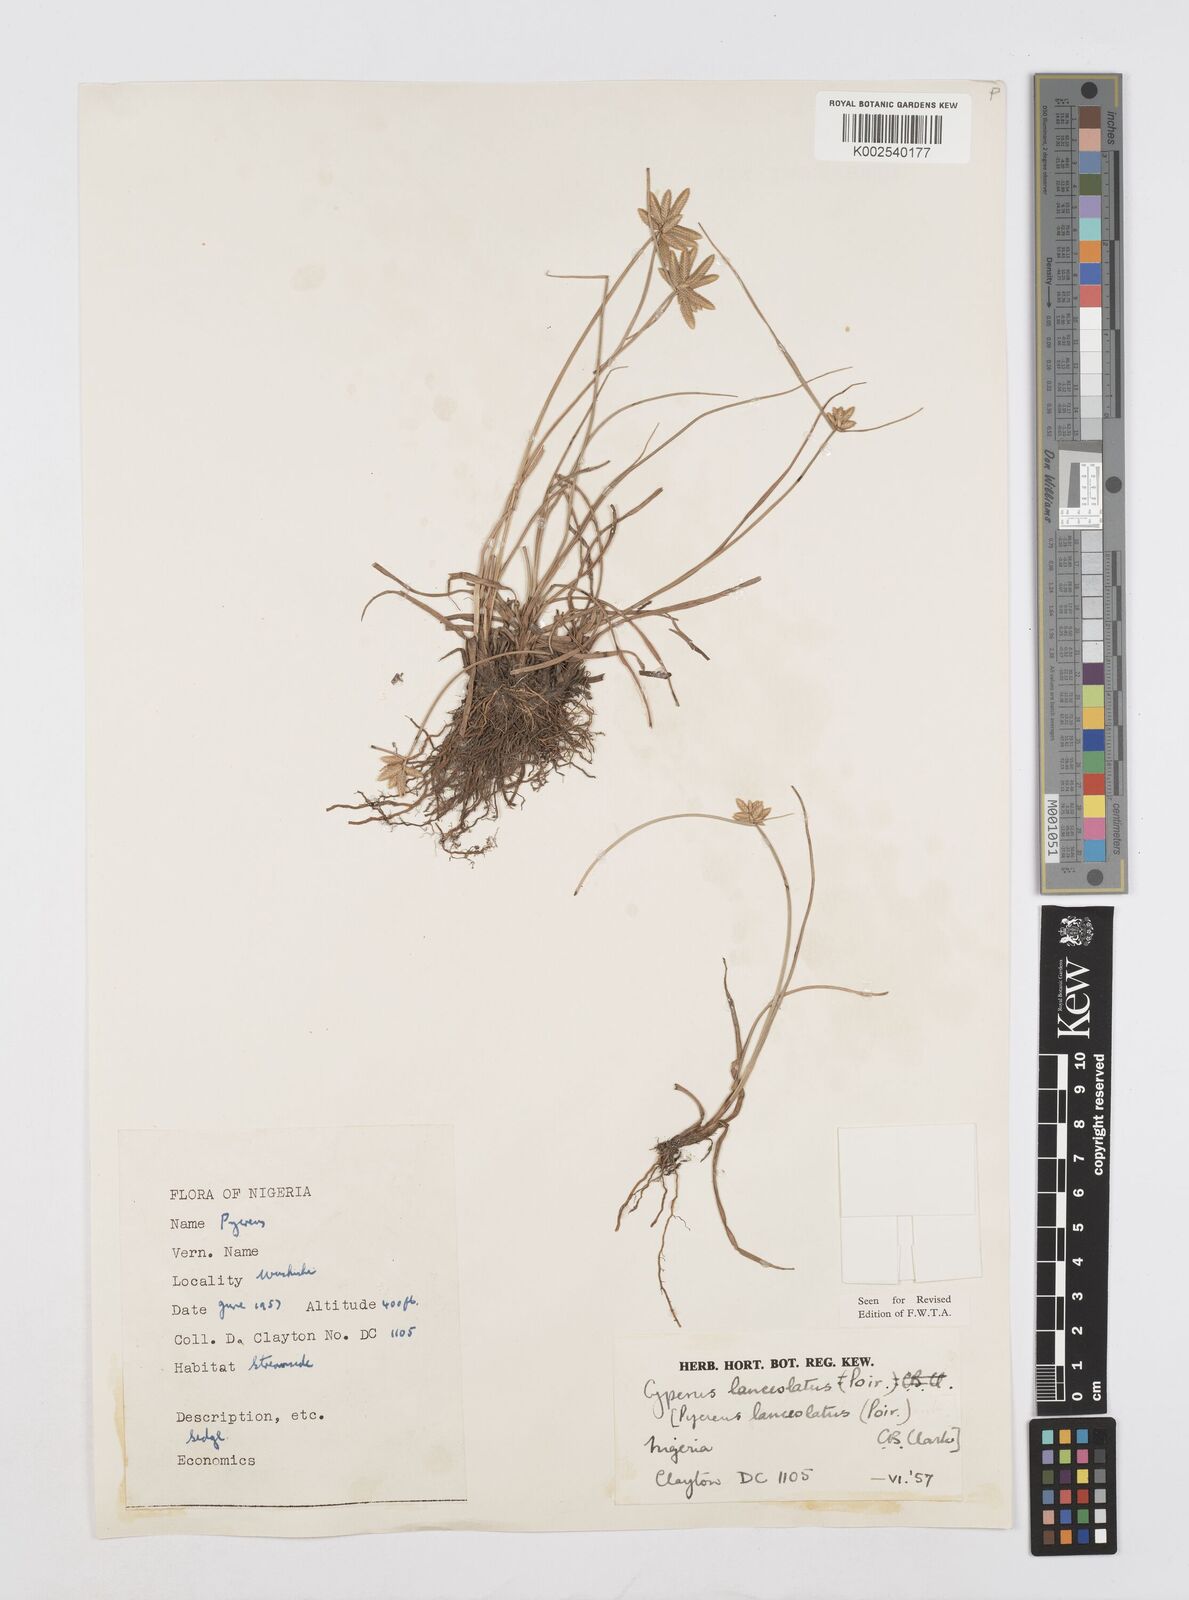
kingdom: Plantae
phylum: Tracheophyta
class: Liliopsida
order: Poales
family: Cyperaceae
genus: Cyperus
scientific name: Cyperus
